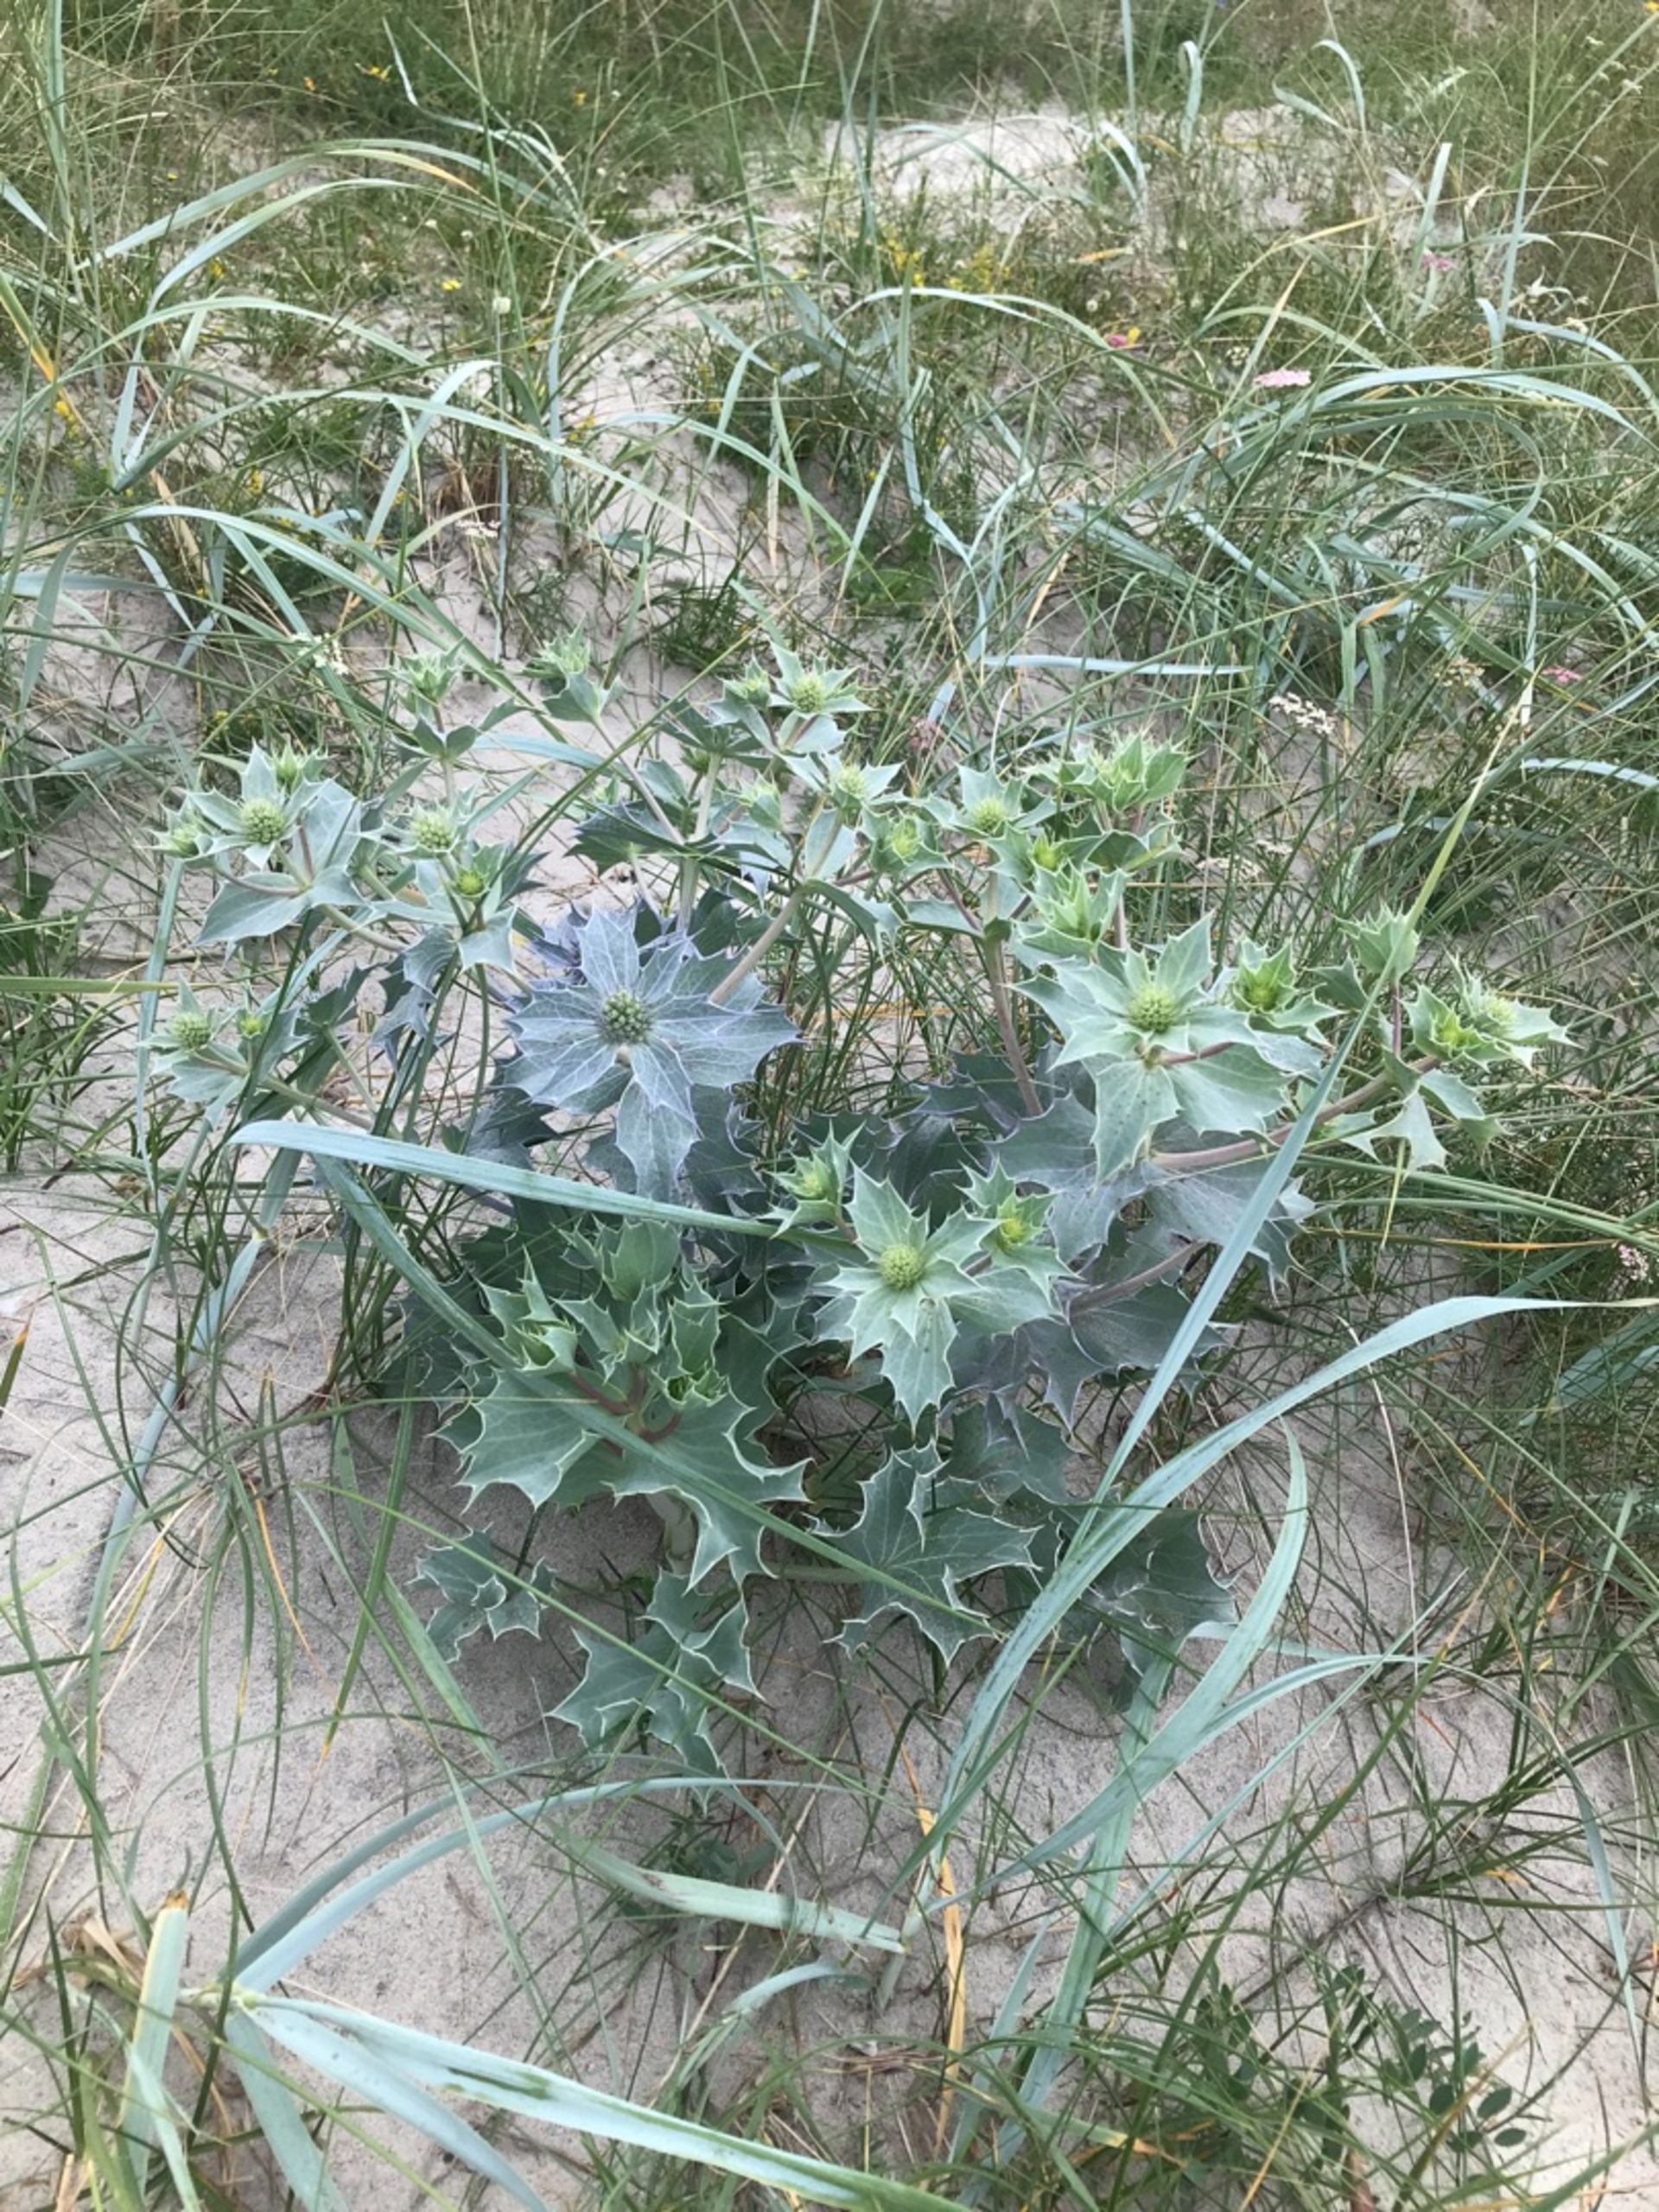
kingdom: Plantae
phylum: Tracheophyta
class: Magnoliopsida
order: Apiales
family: Apiaceae
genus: Eryngium
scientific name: Eryngium maritimum
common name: Strand-mandstro
